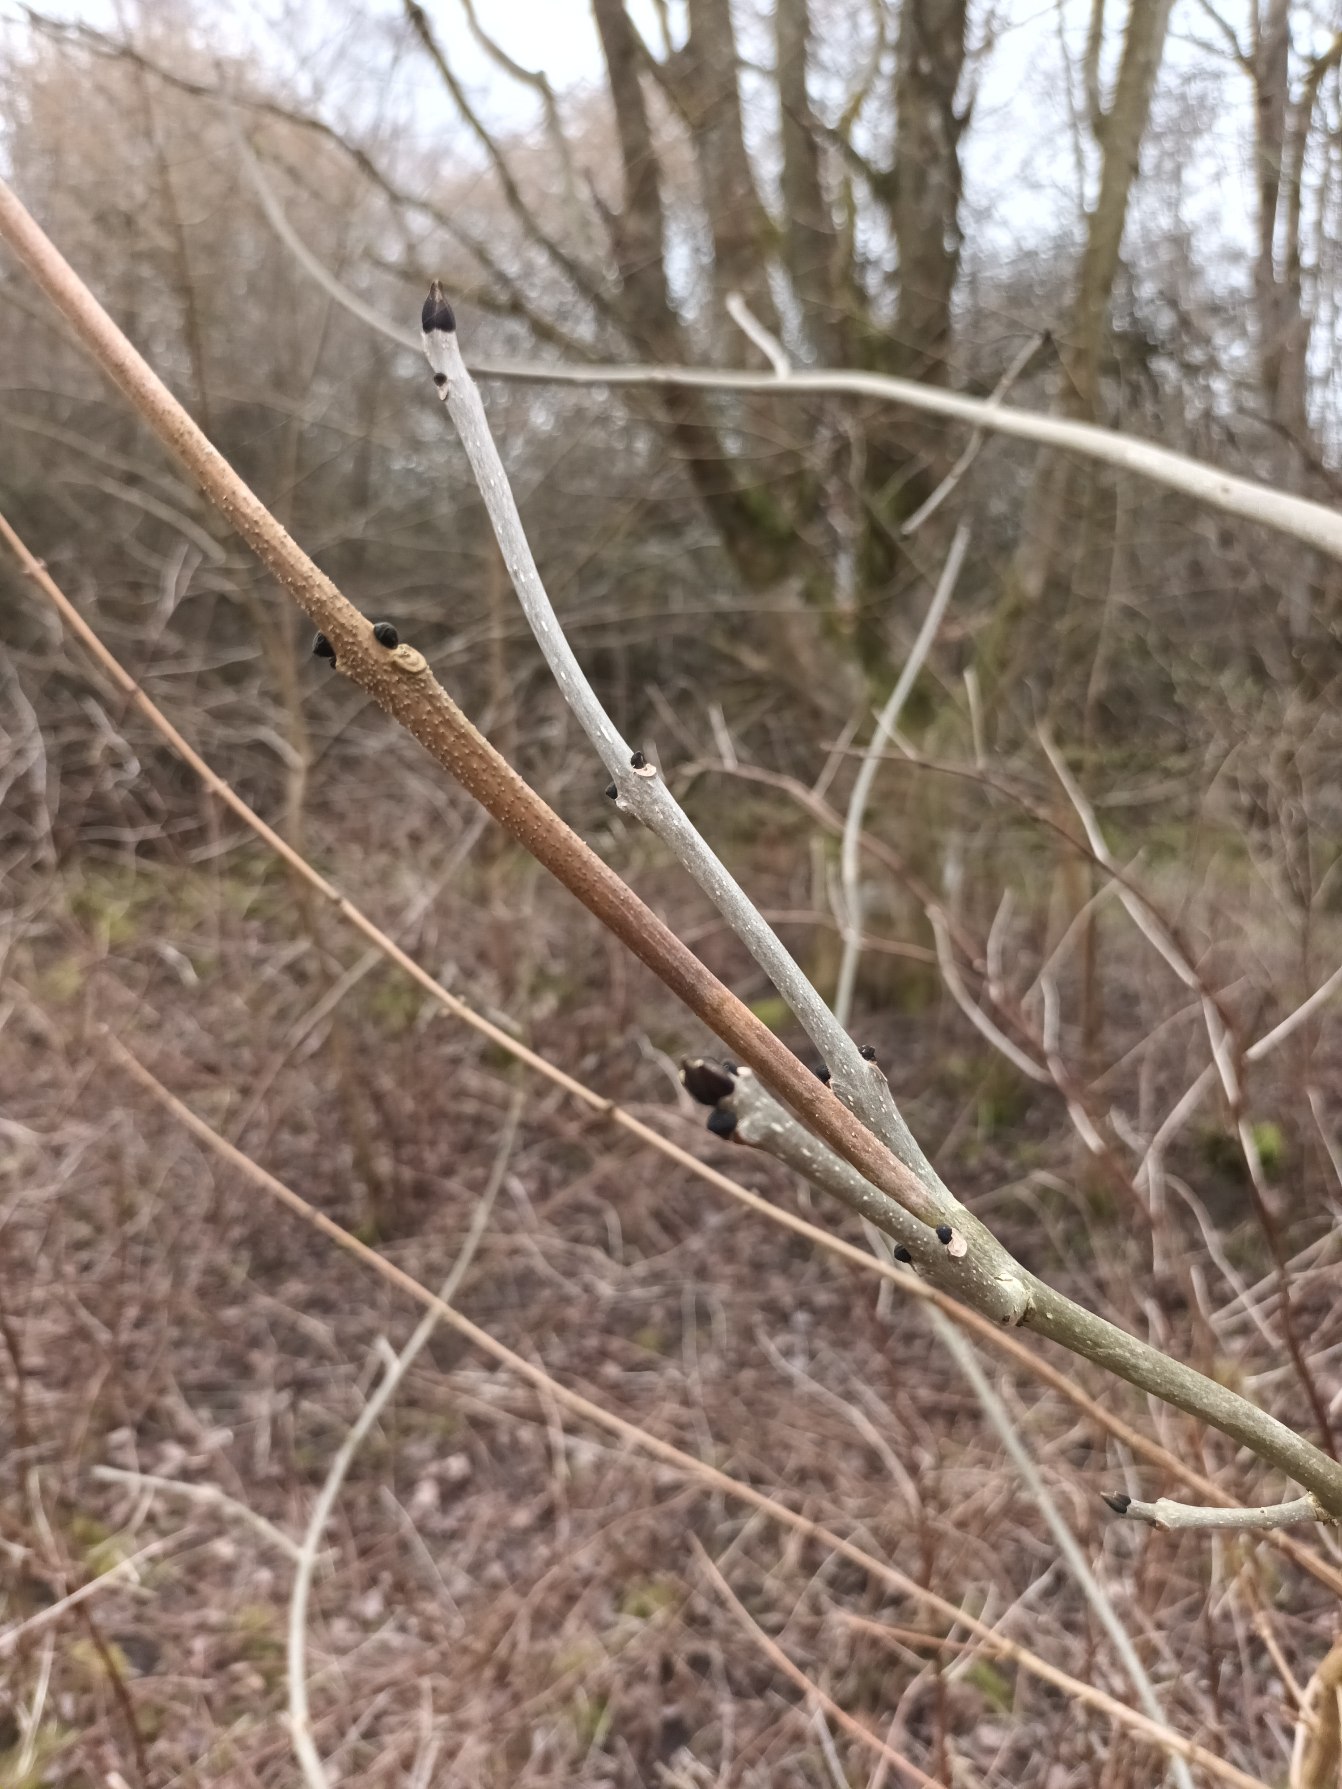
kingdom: Plantae
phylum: Tracheophyta
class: Magnoliopsida
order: Lamiales
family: Oleaceae
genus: Fraxinus
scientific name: Fraxinus excelsior
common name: Ask
